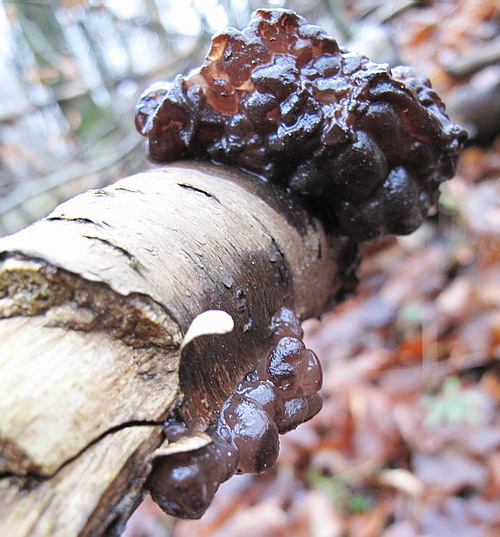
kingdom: Fungi
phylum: Ascomycota
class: Leotiomycetes
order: Helotiales
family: Gelatinodiscaceae
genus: Ascotremella
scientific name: Ascotremella faginea
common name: hjerne-bævreskive
